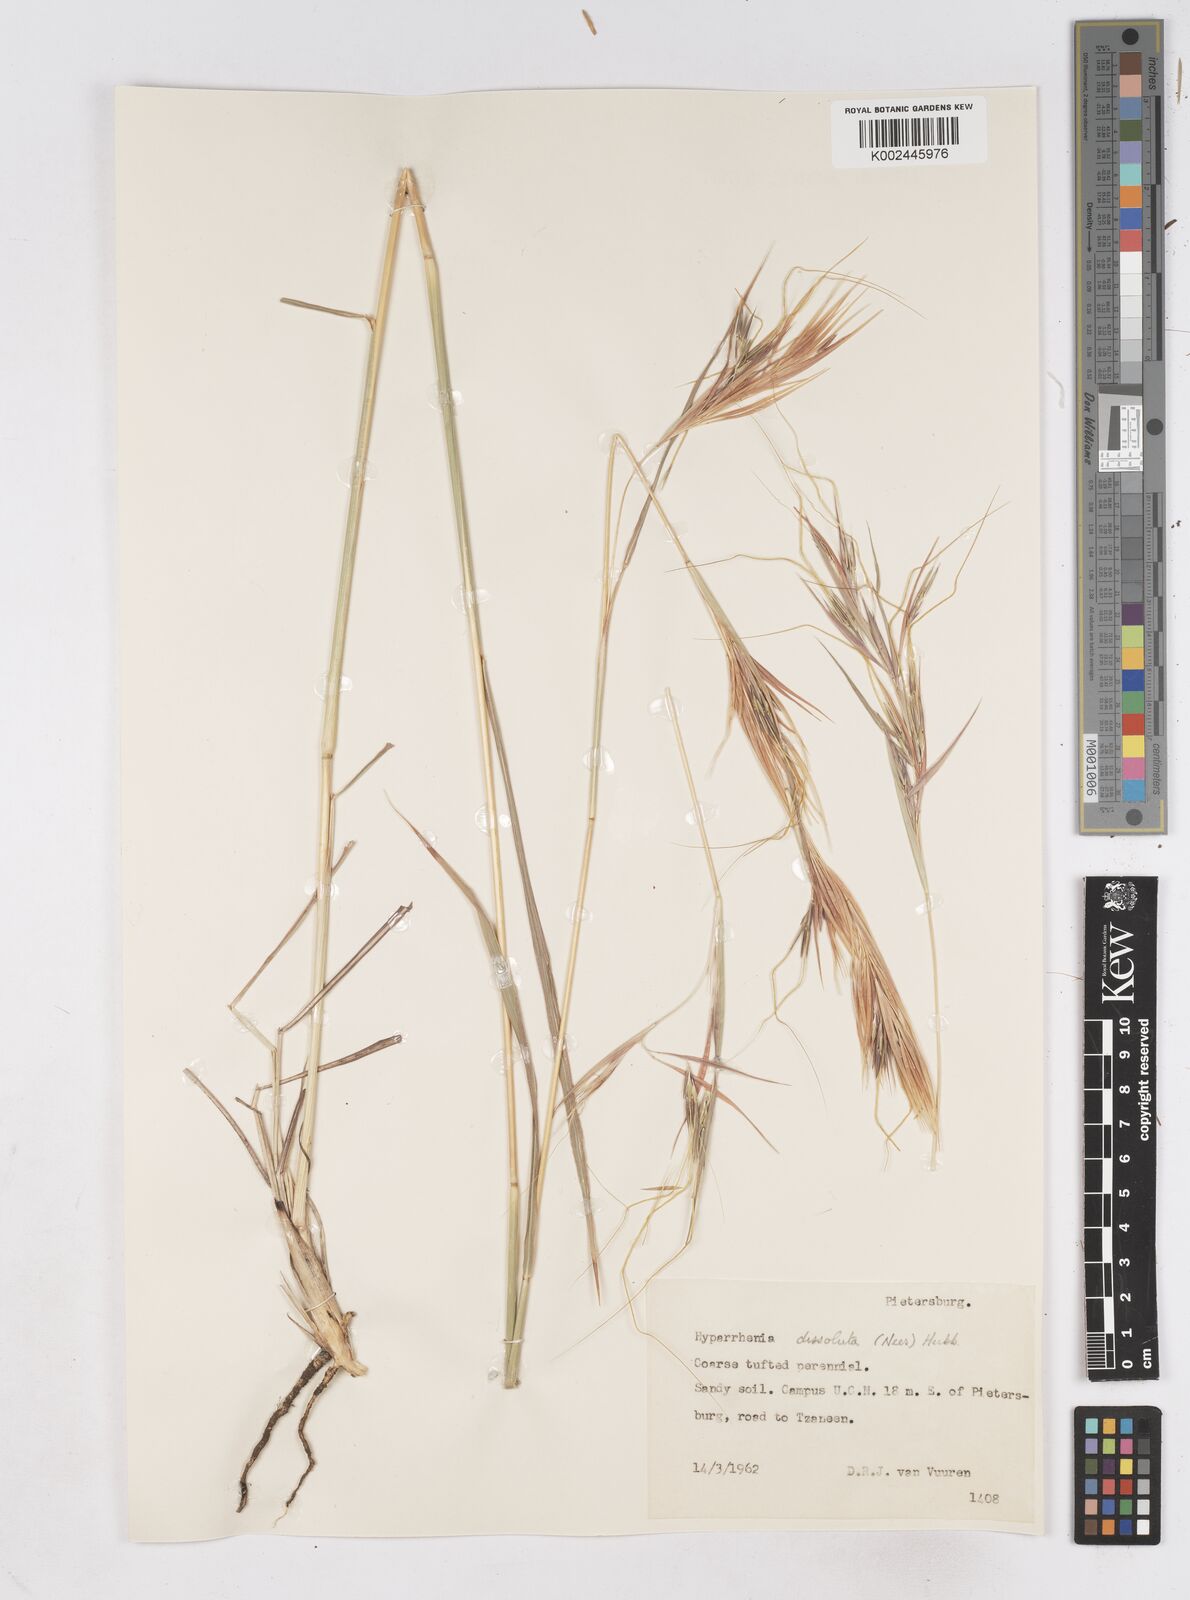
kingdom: Plantae
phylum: Tracheophyta
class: Liliopsida
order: Poales
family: Poaceae
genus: Hyperthelia
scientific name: Hyperthelia dissoluta
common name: Yellow thatching grass
